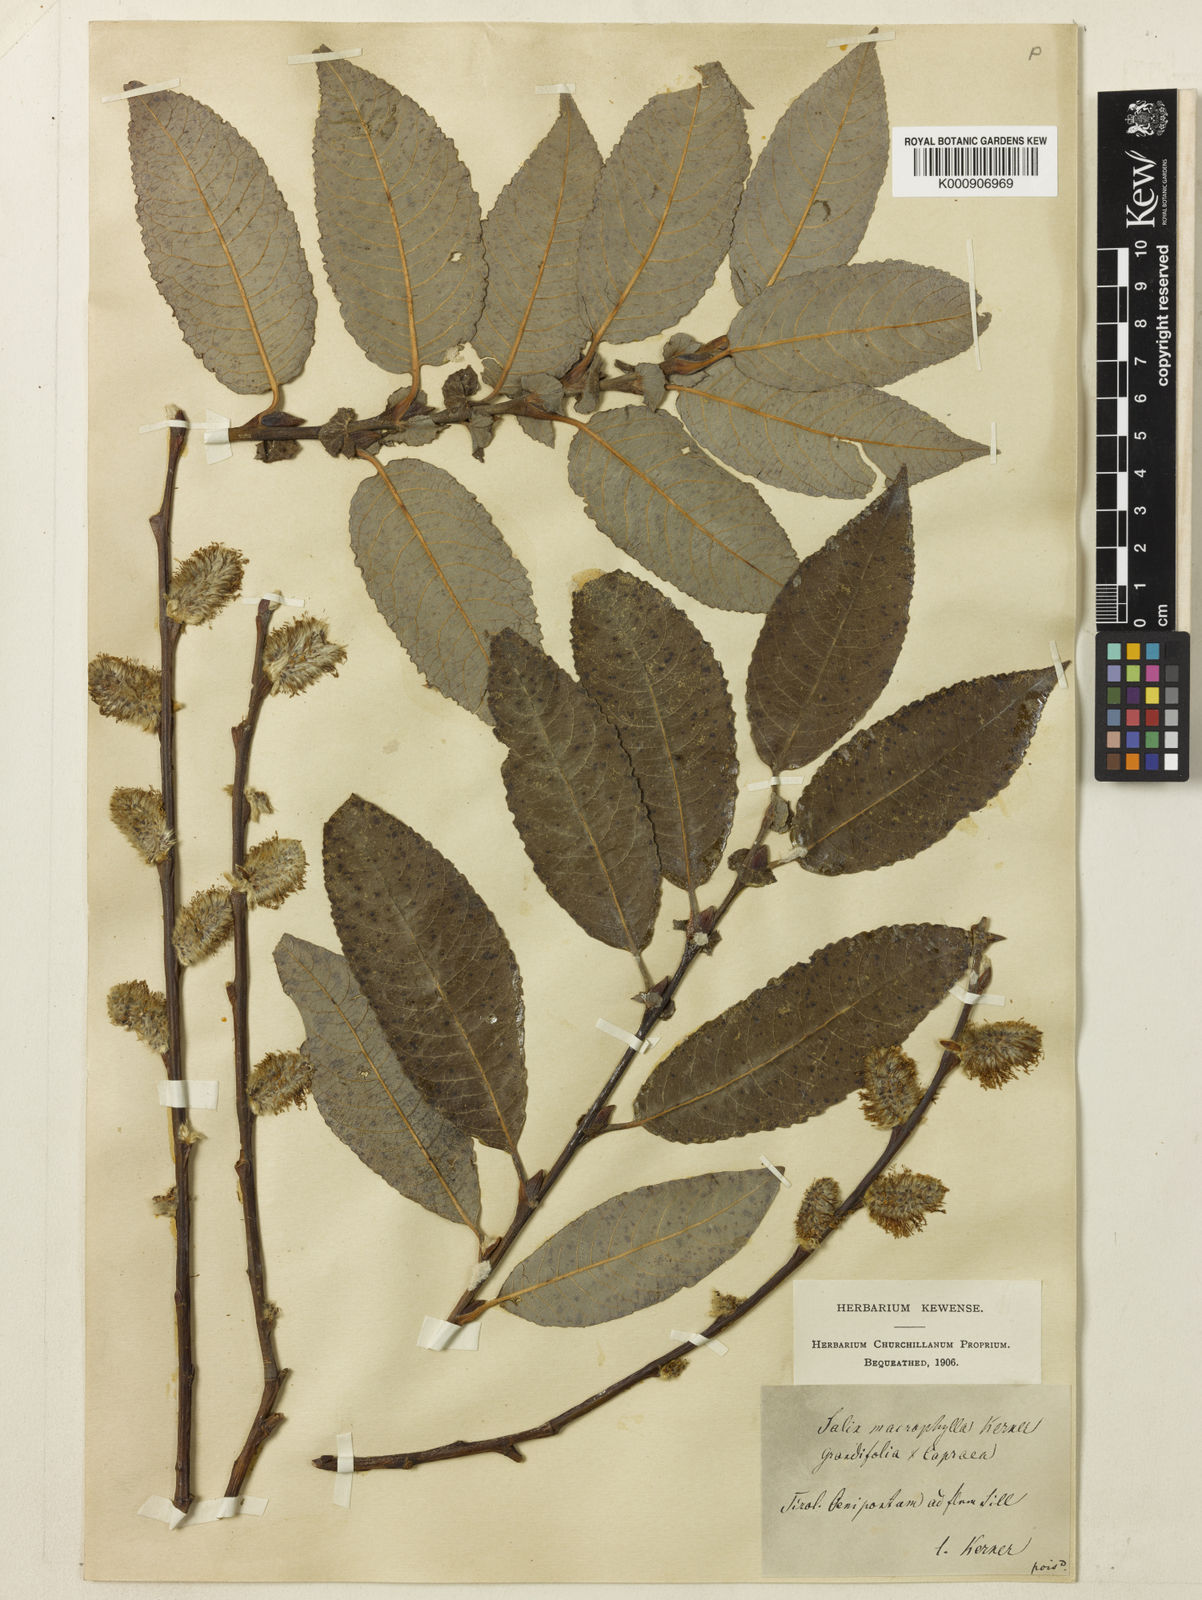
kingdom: Plantae
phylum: Tracheophyta
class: Magnoliopsida
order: Malpighiales
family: Salicaceae
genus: Salix
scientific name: Salix appendiculata
